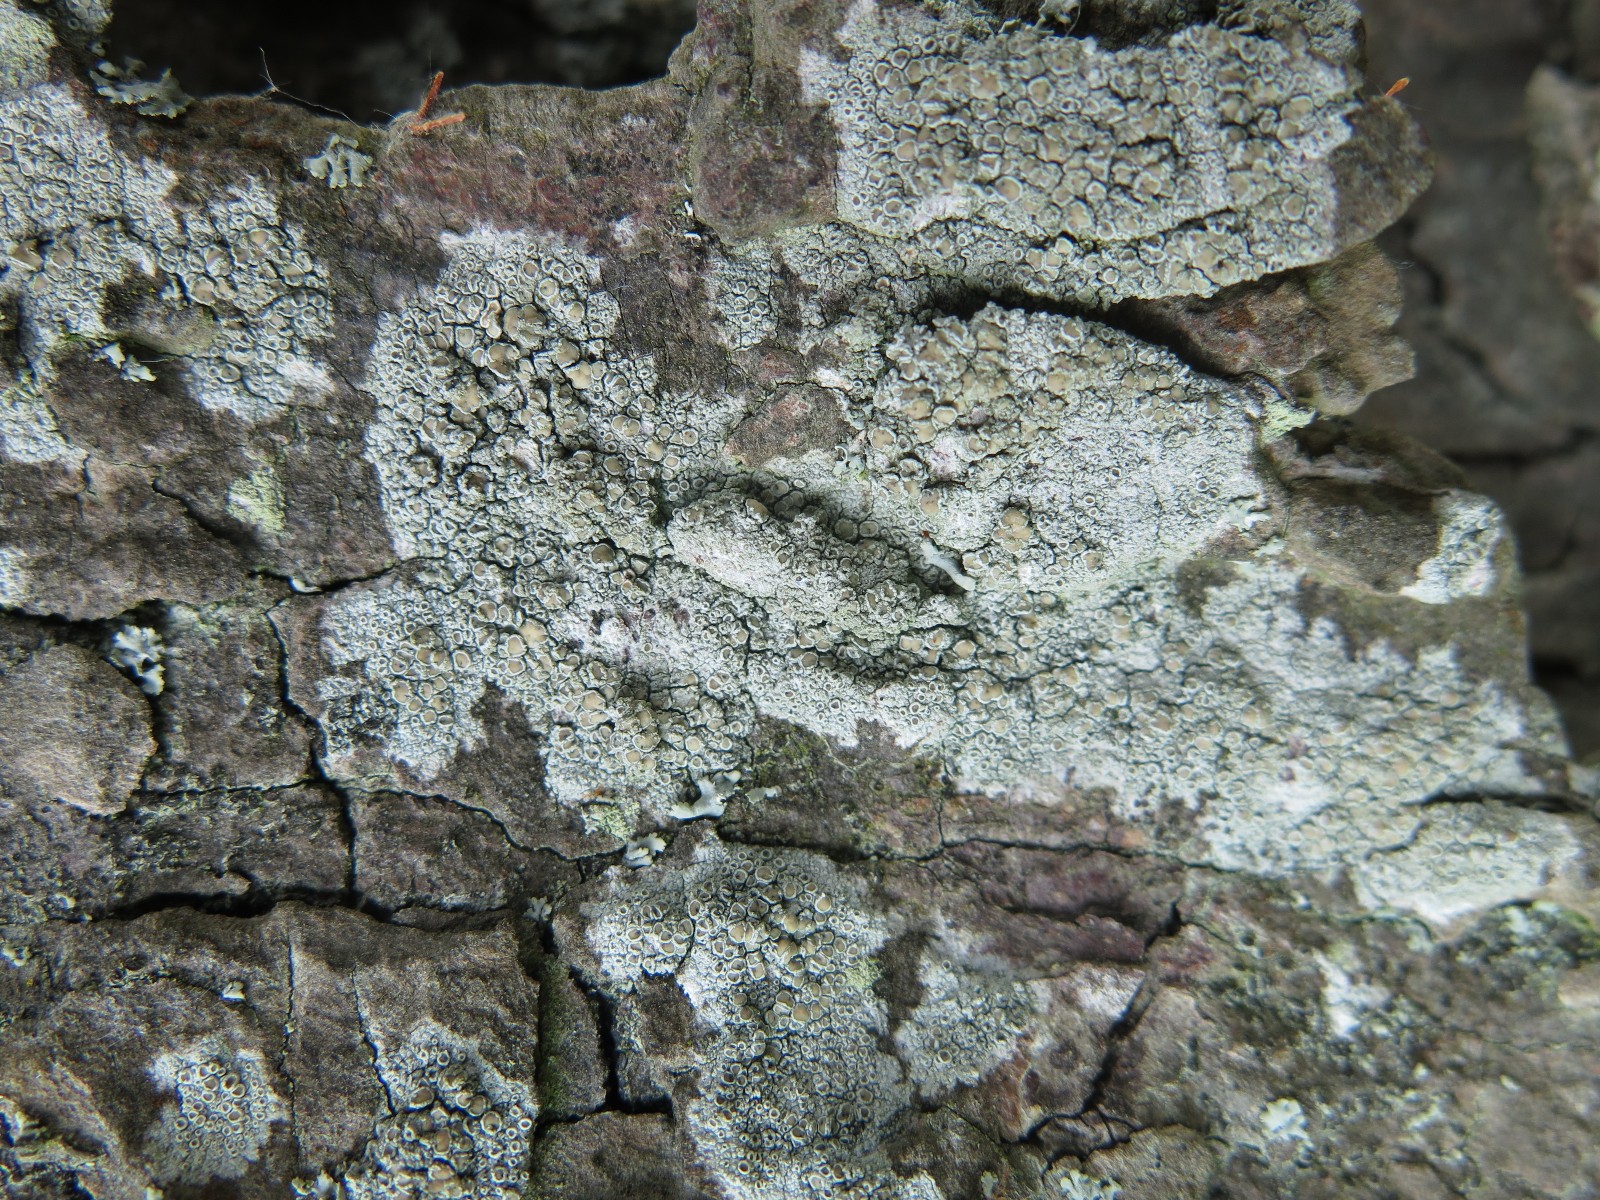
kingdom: Fungi
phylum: Ascomycota
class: Lecanoromycetes
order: Lecanorales
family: Lecanoraceae
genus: Lecanora
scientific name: Lecanora chlarotera
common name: brun kantskivelav
